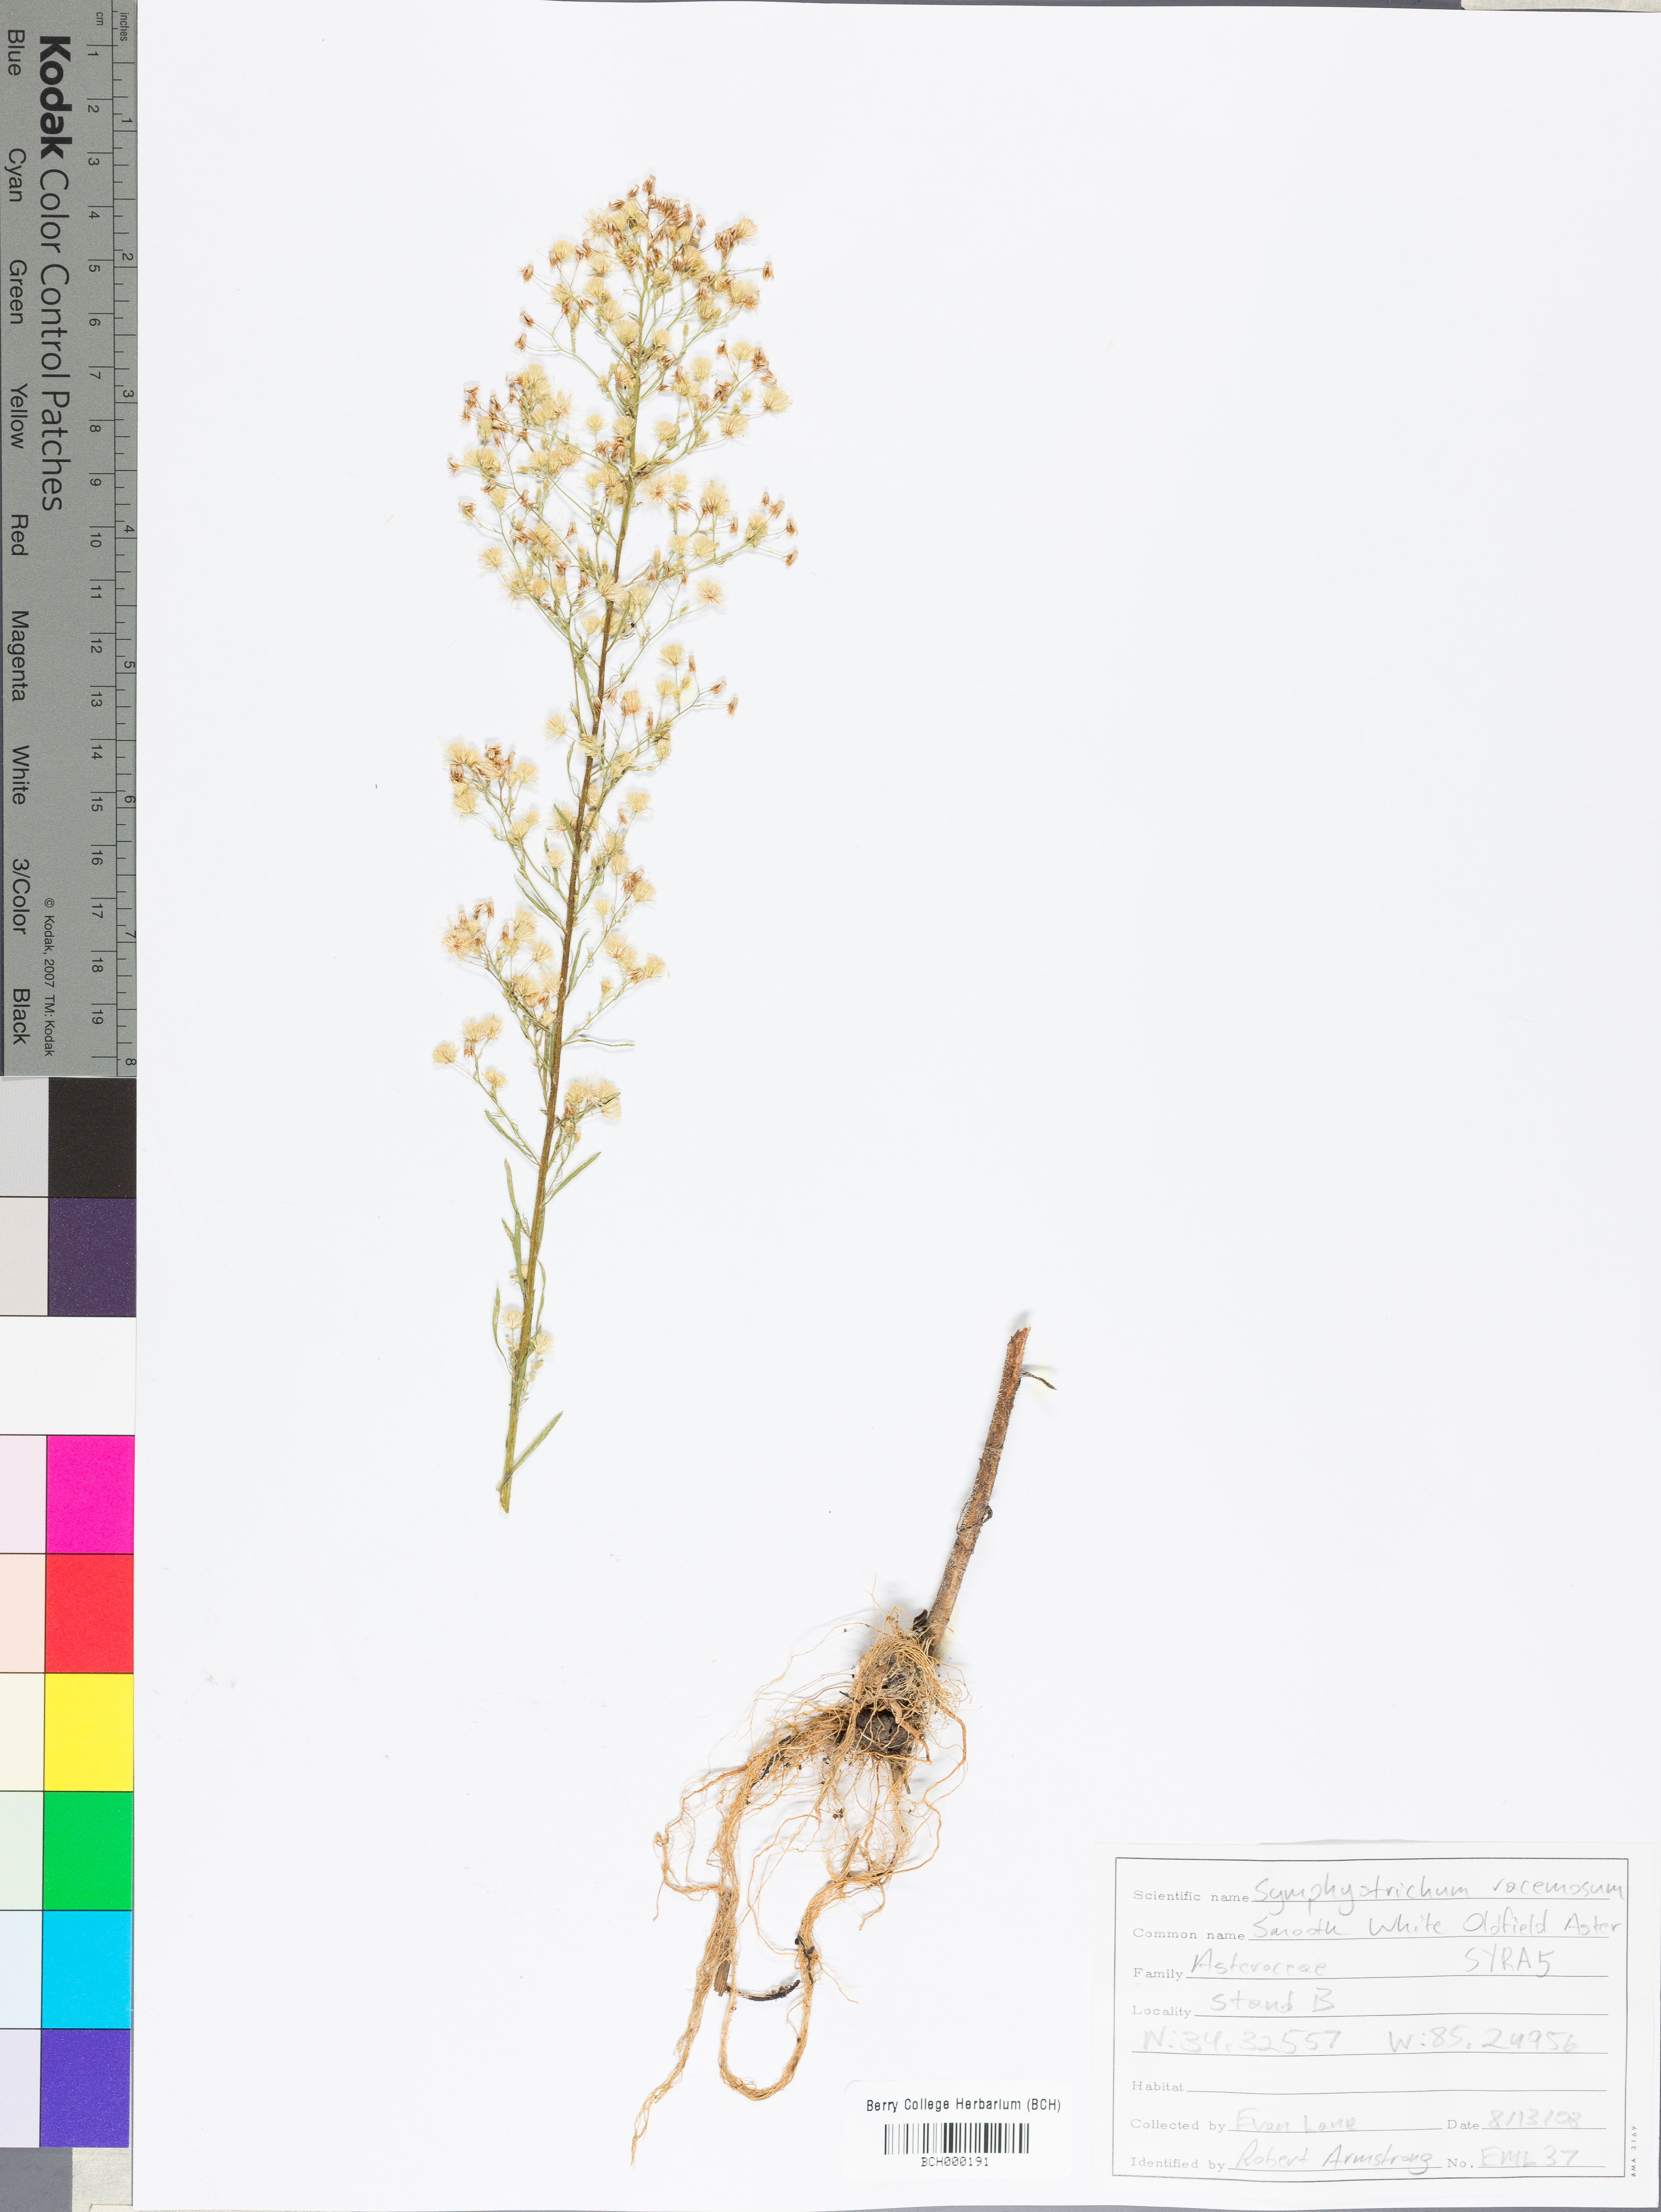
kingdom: Plantae
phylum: Tracheophyta
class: Magnoliopsida
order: Asterales
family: Asteraceae
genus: Symphyotrichum
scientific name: Symphyotrichum racemosum
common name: Small white aster
